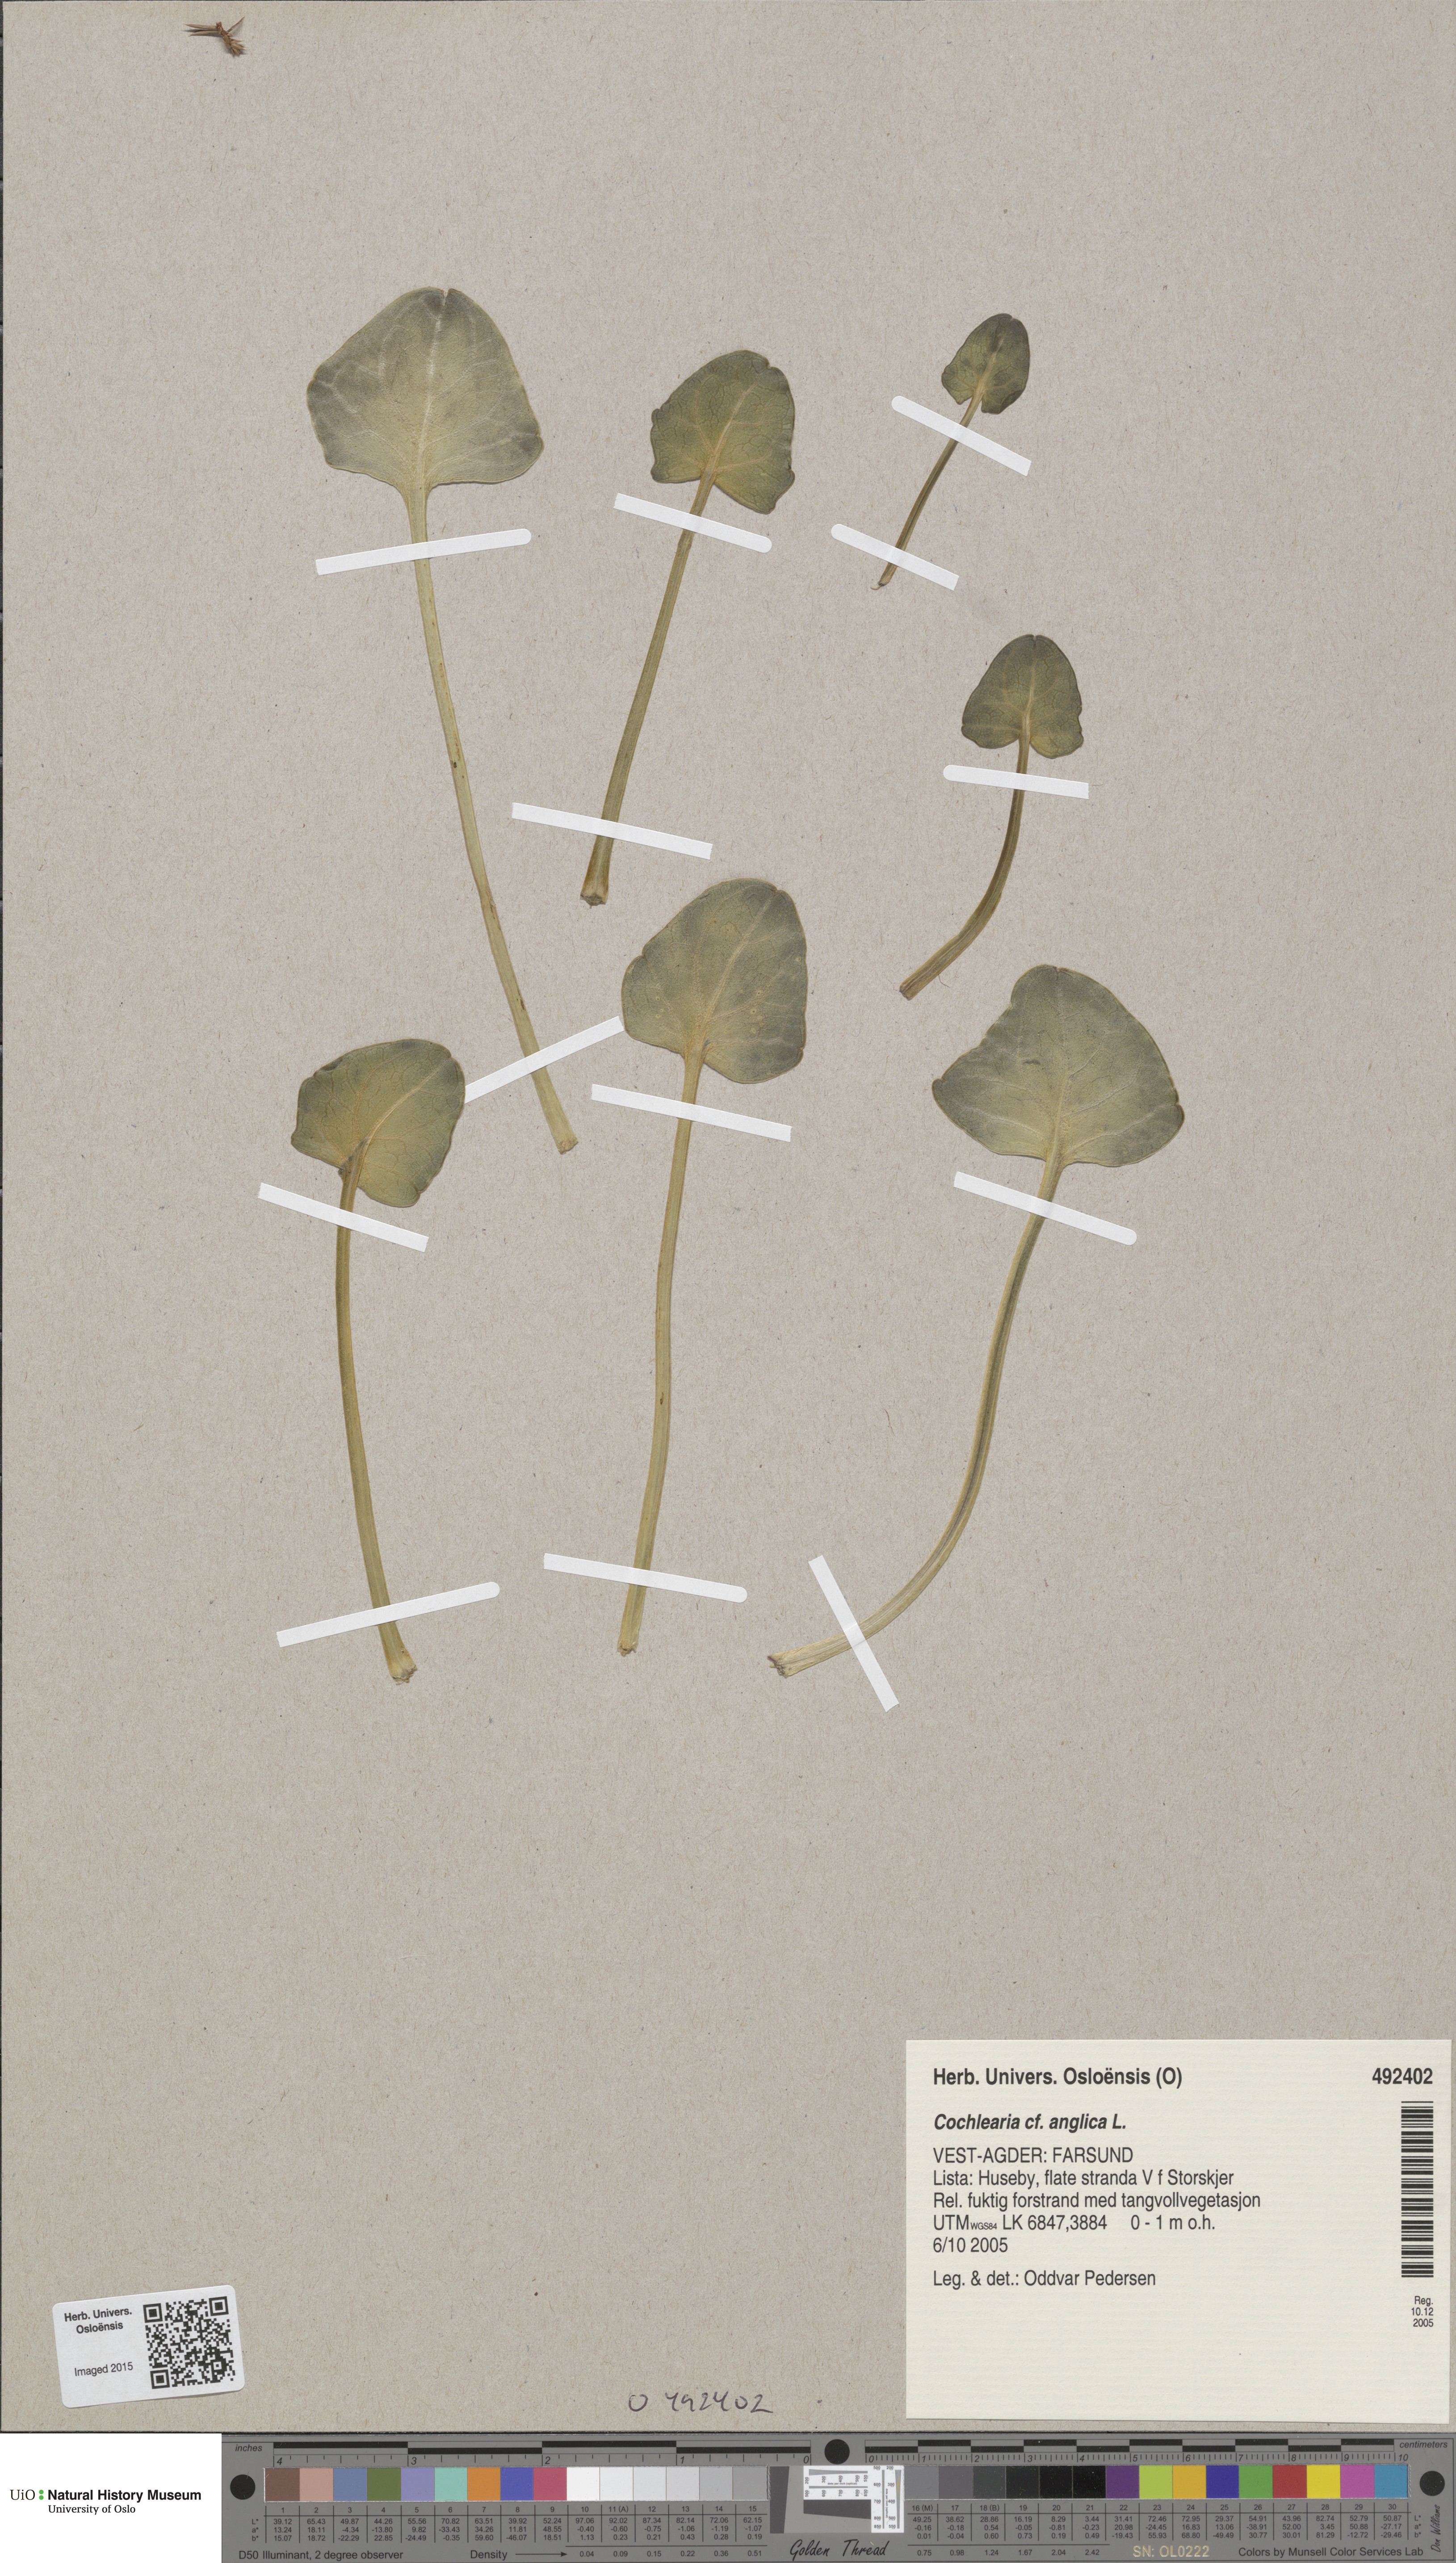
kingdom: Plantae
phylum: Tracheophyta
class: Magnoliopsida
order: Brassicales
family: Brassicaceae
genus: Cochlearia
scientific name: Cochlearia anglica
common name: English scurvygrass
